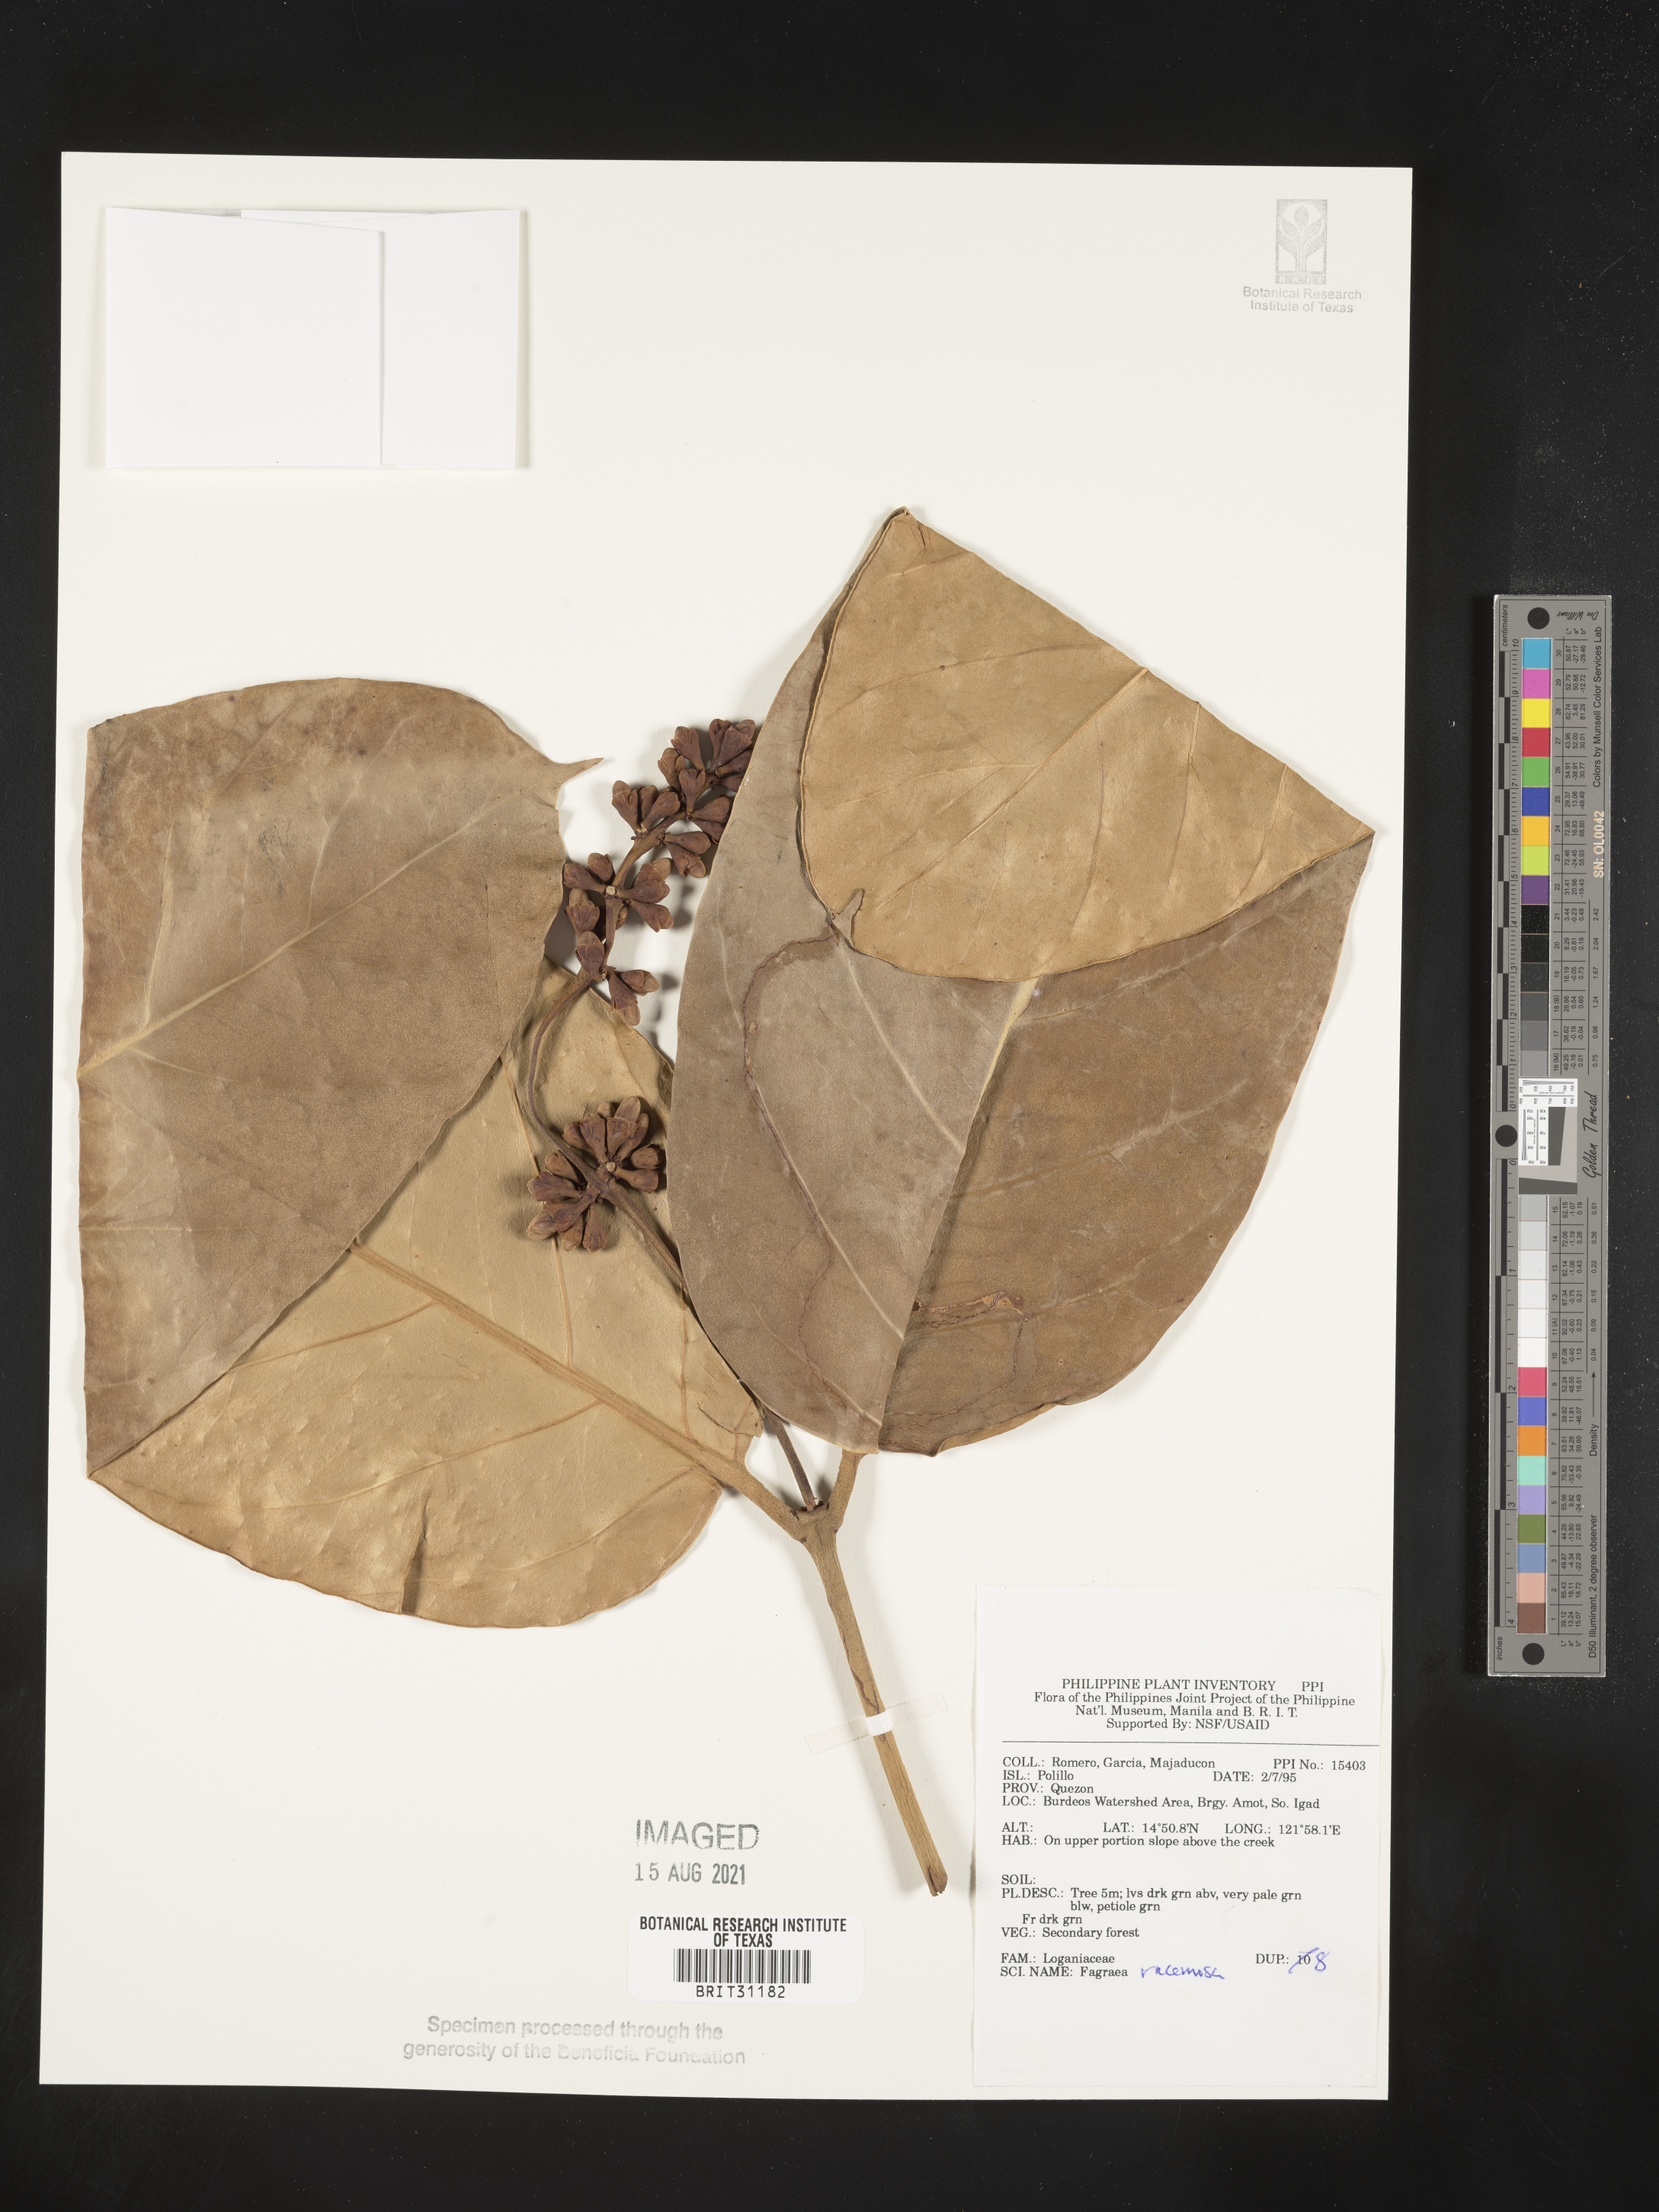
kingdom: Plantae
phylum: Tracheophyta
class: Magnoliopsida
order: Gentianales
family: Gentianaceae
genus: Utania
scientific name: Utania racemosa
